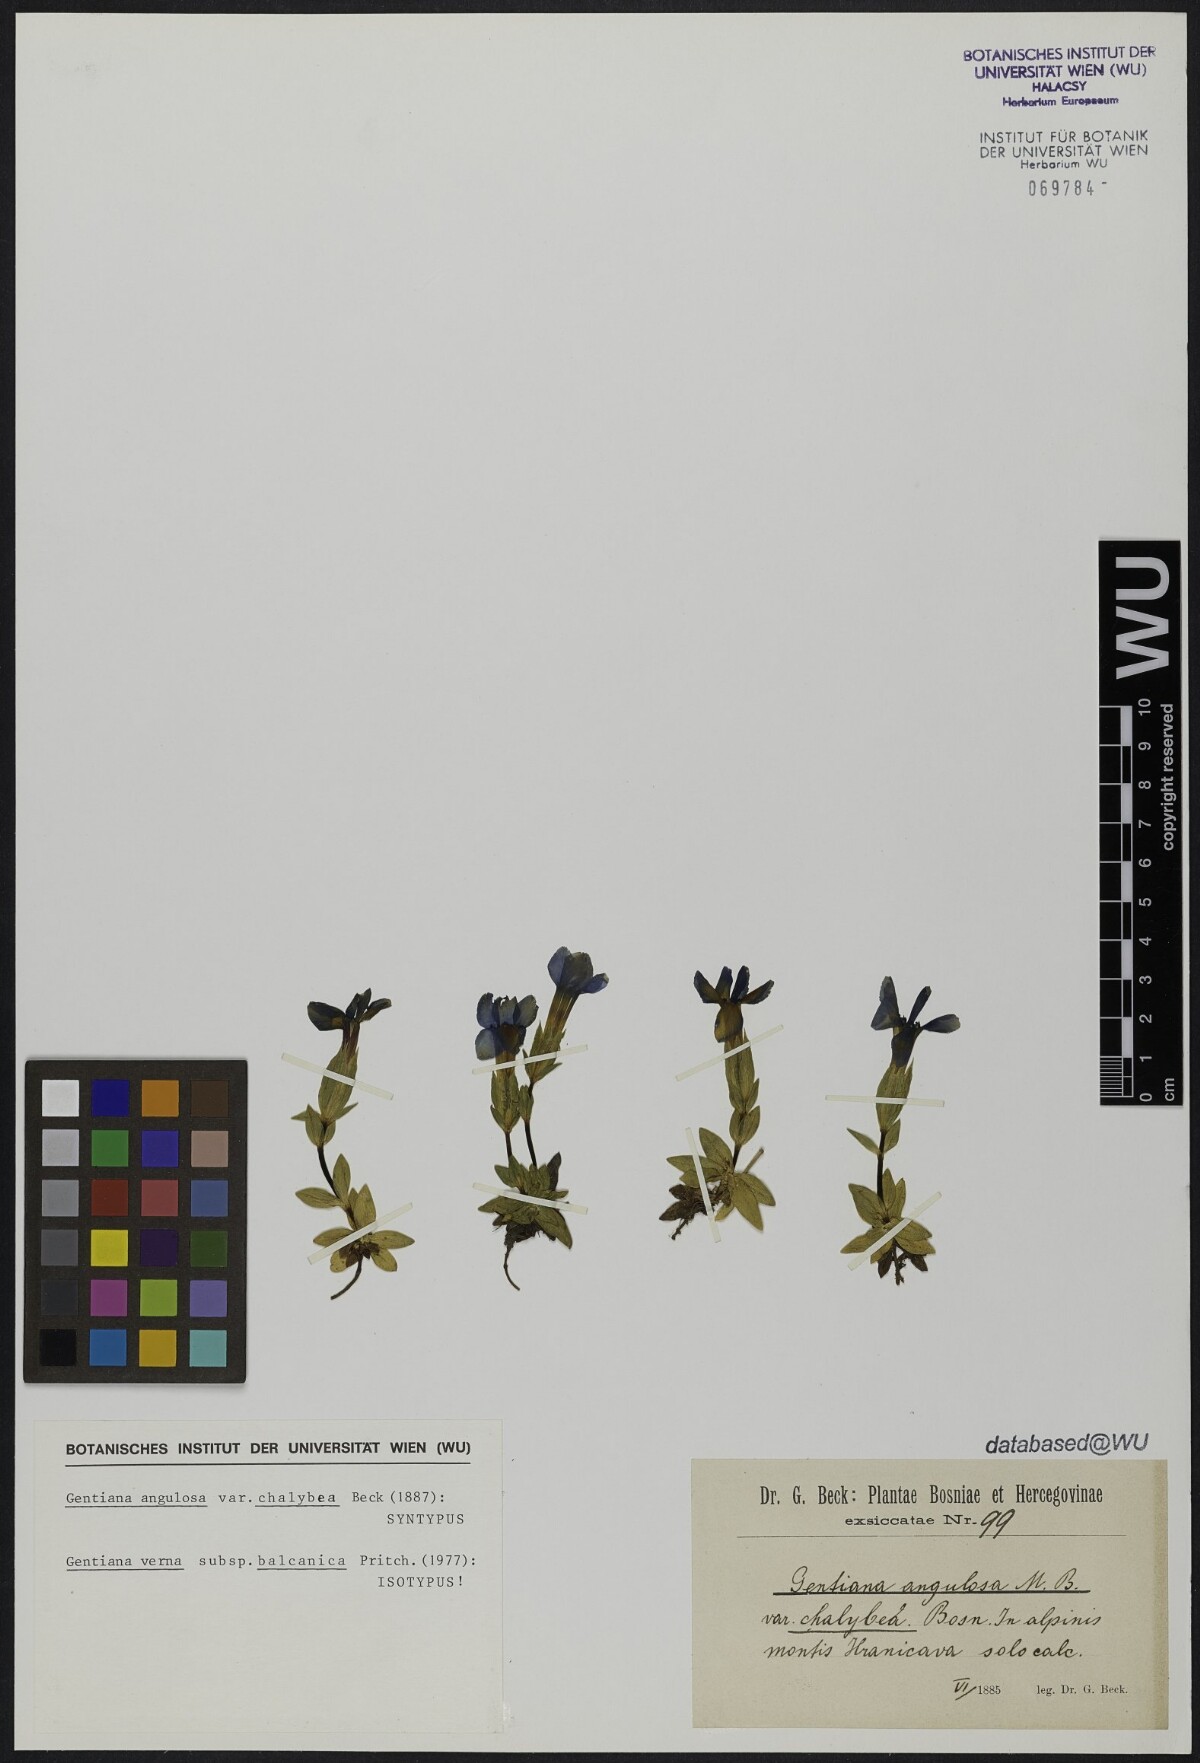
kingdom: Plantae
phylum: Tracheophyta
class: Magnoliopsida
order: Gentianales
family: Gentianaceae
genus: Gentiana
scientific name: Gentiana verna
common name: Spring gentian
